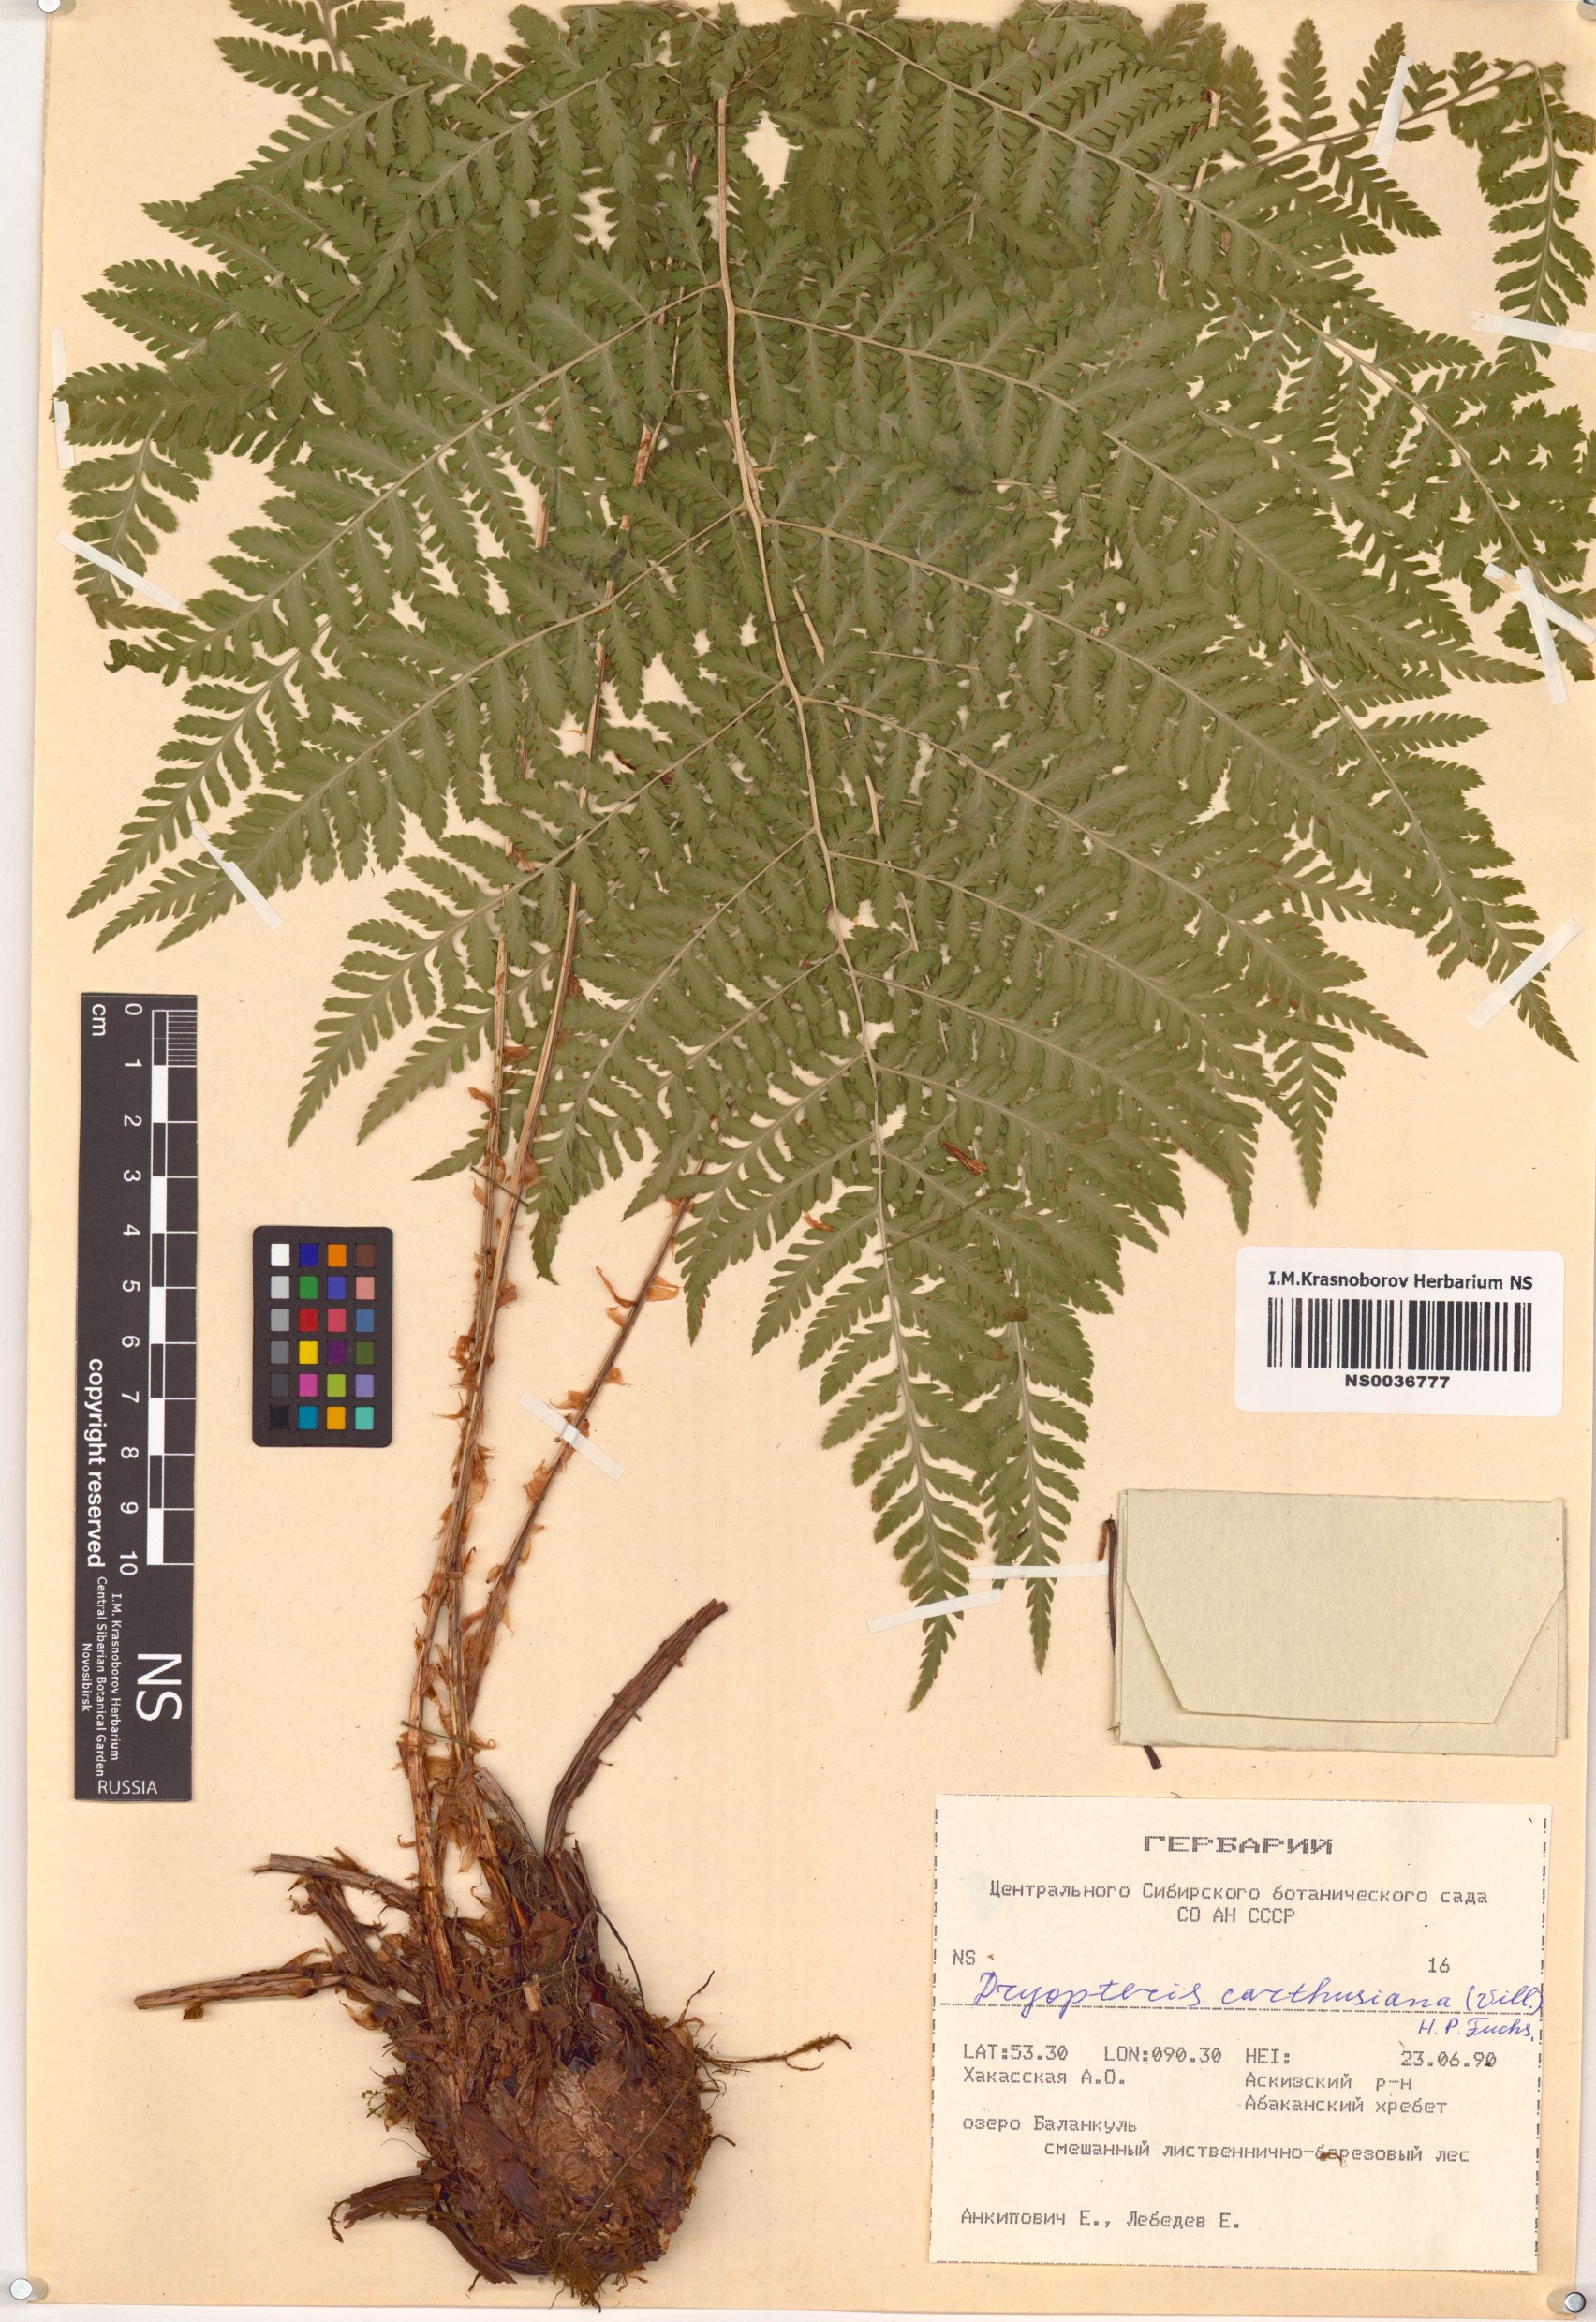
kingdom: Plantae
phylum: Tracheophyta
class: Polypodiopsida
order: Polypodiales
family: Dryopteridaceae
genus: Dryopteris
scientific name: Dryopteris carthusiana
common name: Narrow buckler-fern
